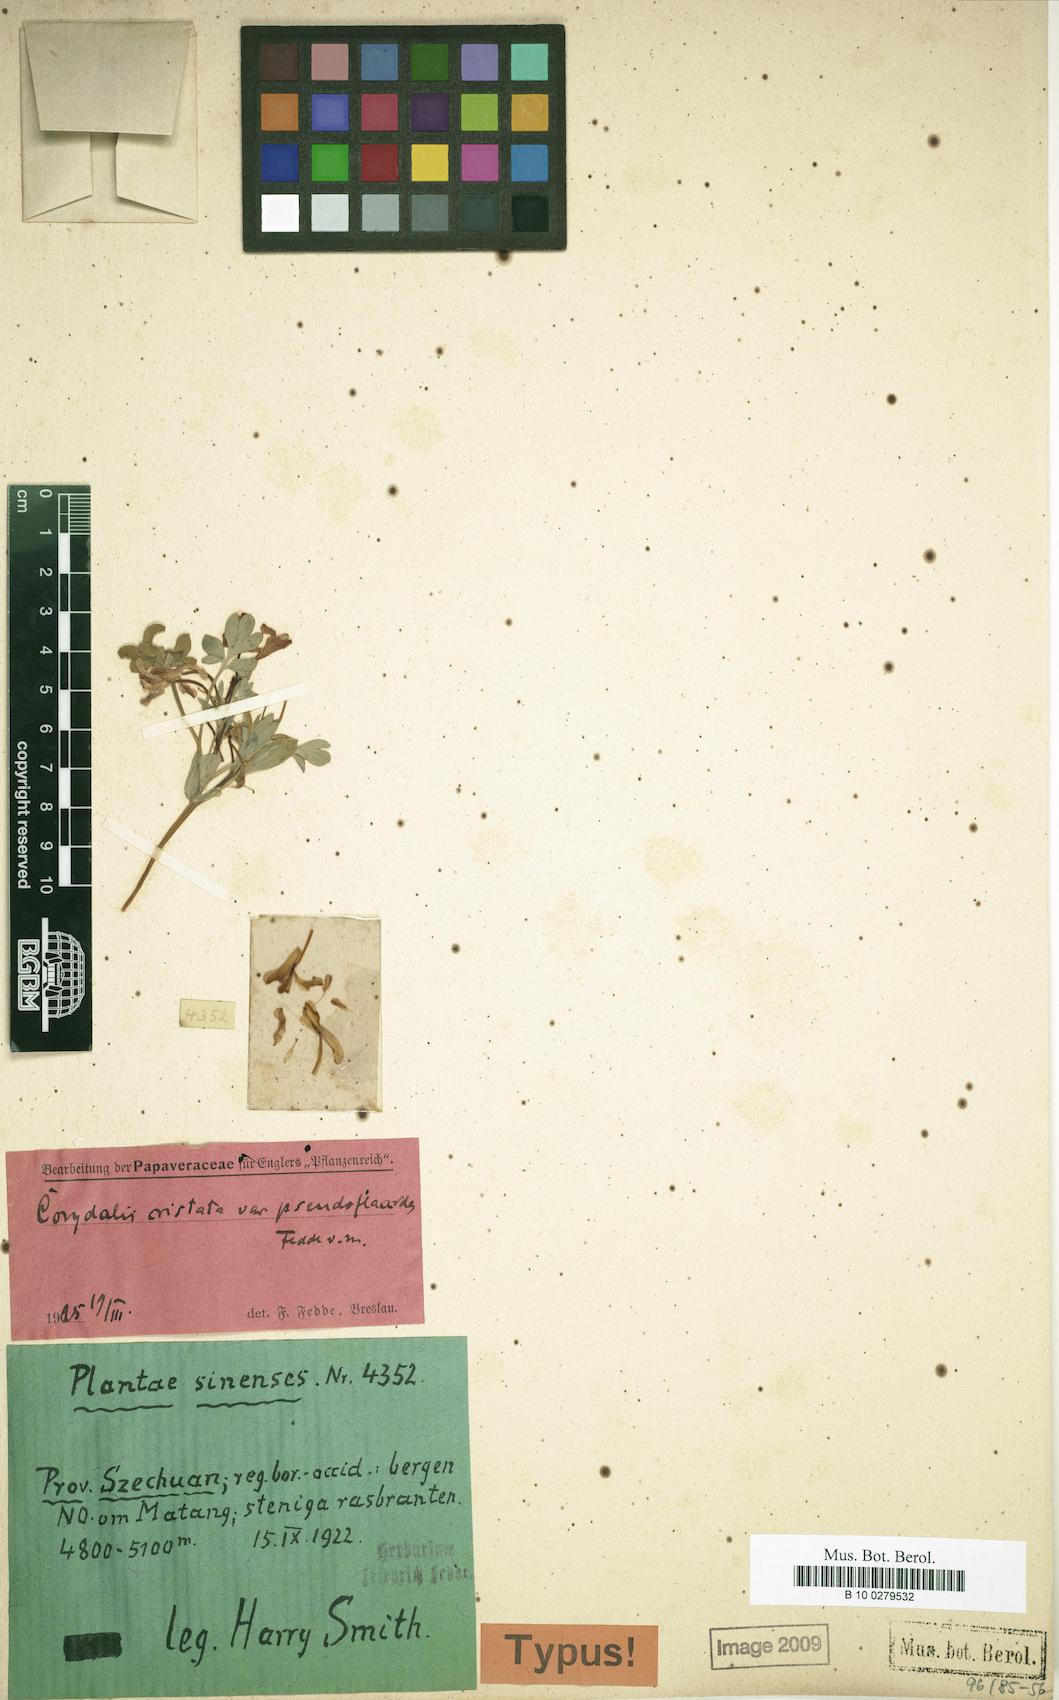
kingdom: Plantae
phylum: Tracheophyta
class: Magnoliopsida
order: Ranunculales
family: Papaveraceae
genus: Corydalis
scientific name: Corydalis dajingensis
